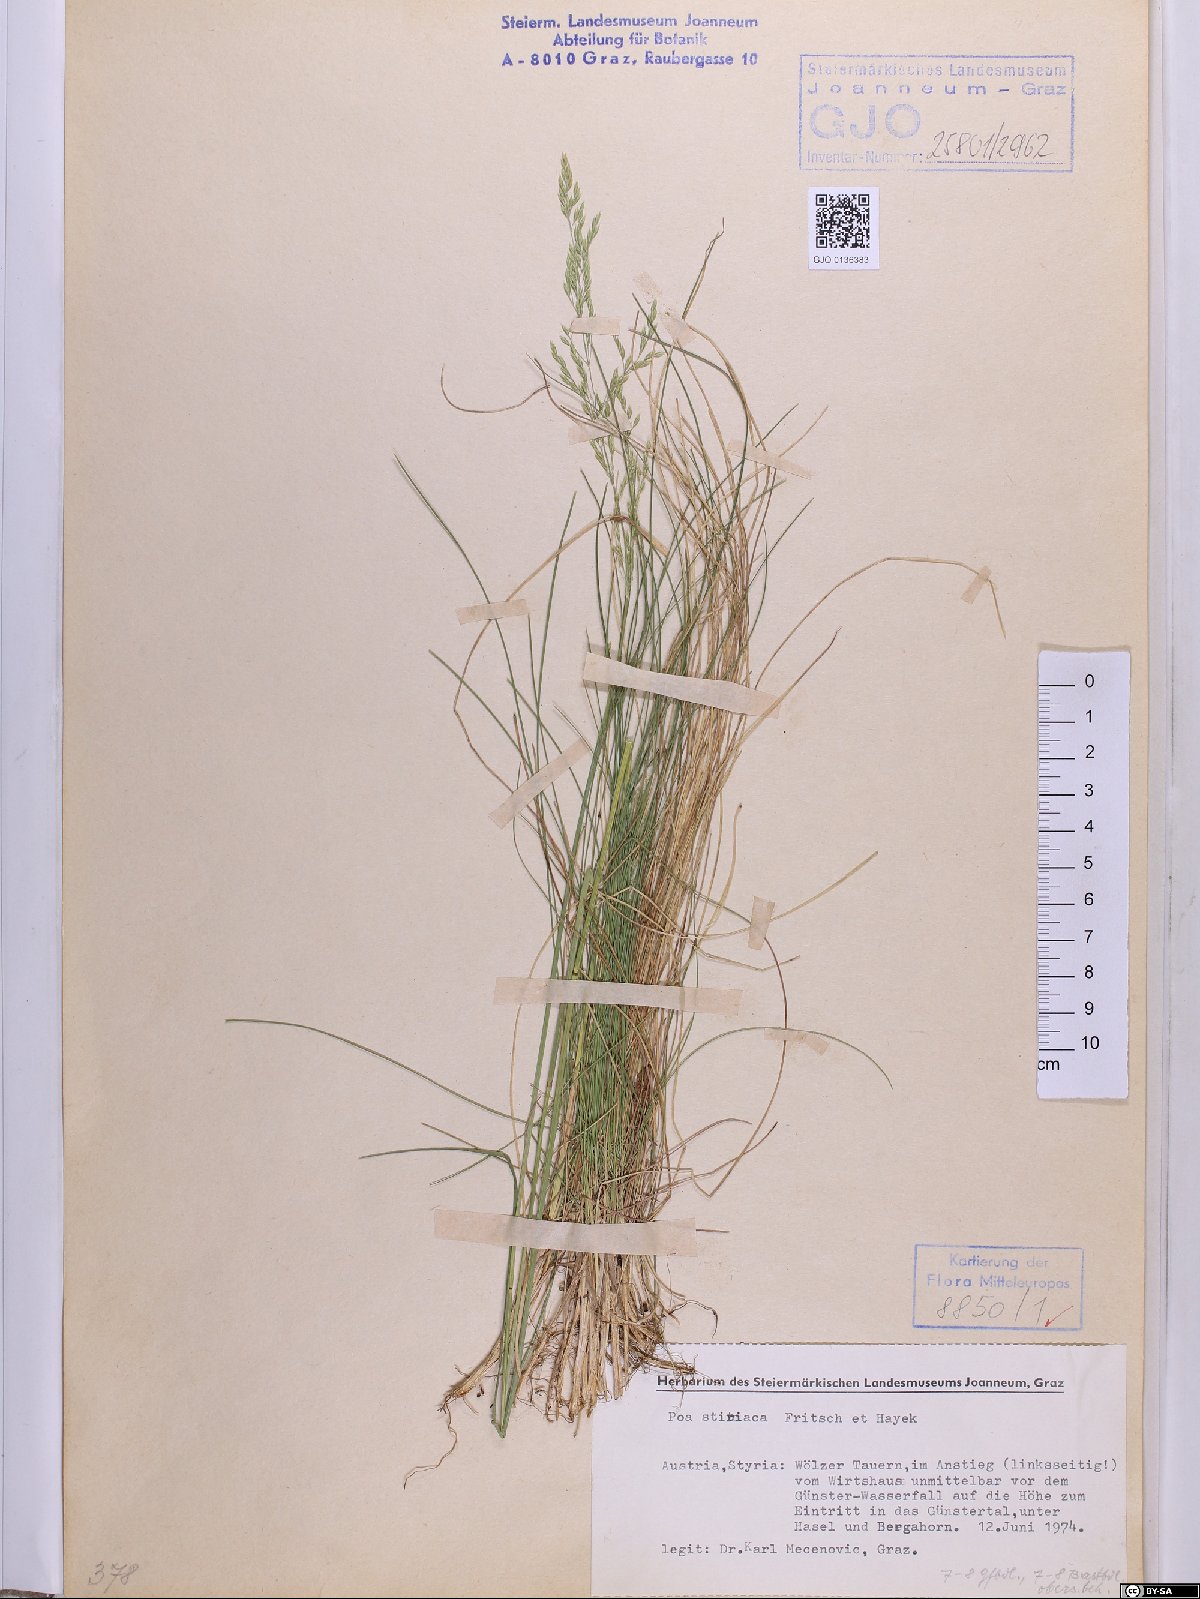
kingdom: Plantae
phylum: Tracheophyta
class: Liliopsida
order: Poales
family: Poaceae
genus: Poa
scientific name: Poa stiriaca
